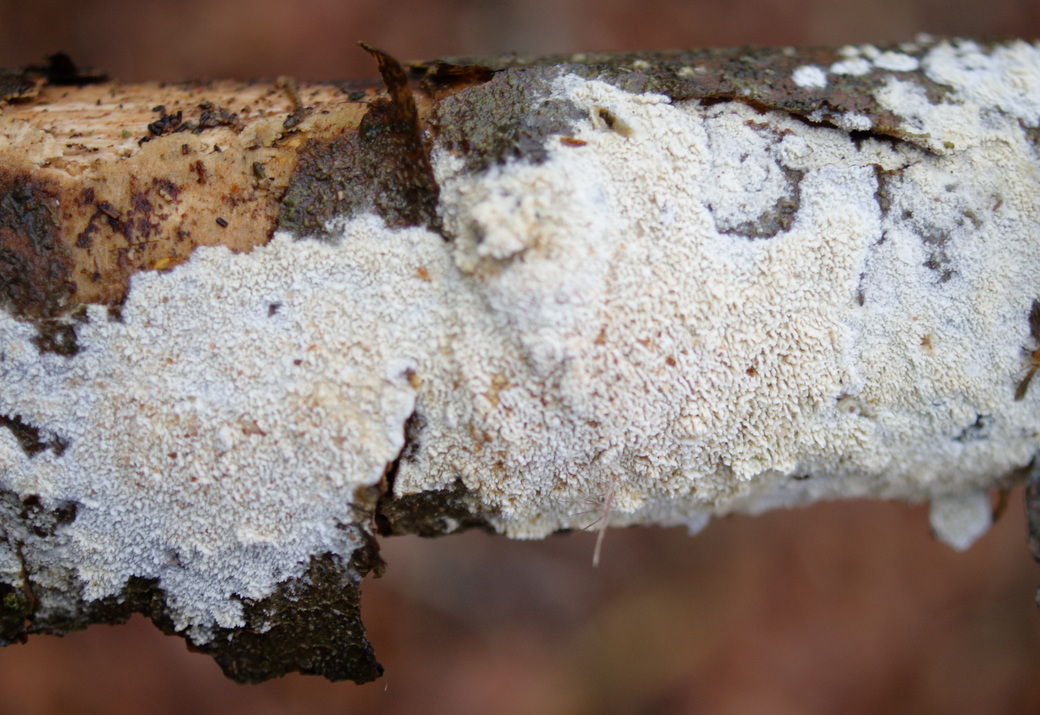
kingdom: Fungi
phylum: Basidiomycota
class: Agaricomycetes
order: Hymenochaetales
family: Schizoporaceae
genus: Schizopora
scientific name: Schizopora paradoxa
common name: hvid tandsvamp
